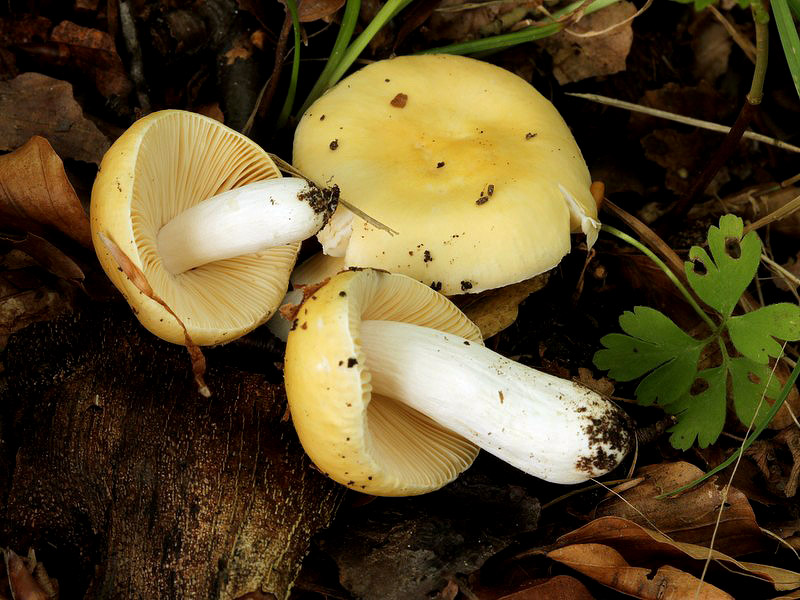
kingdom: Fungi
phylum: Basidiomycota
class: Agaricomycetes
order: Russulales
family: Russulaceae
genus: Russula
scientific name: Russula risigallina
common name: abrikos-skørhat
